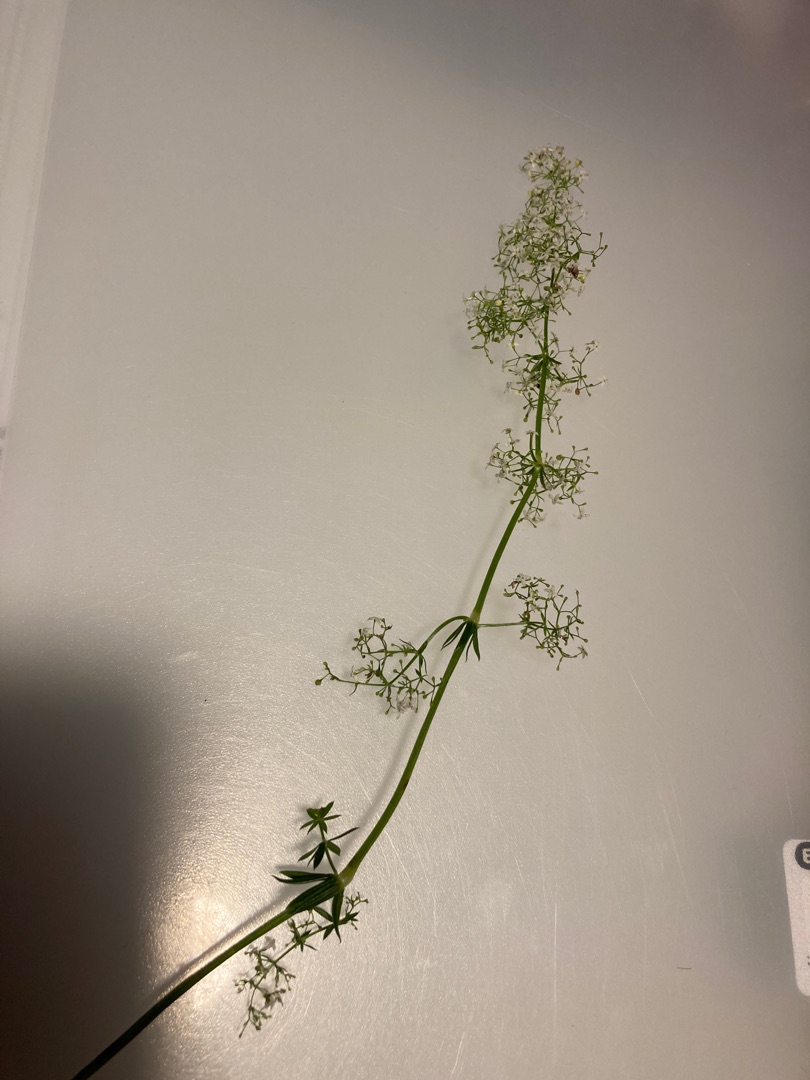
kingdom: Plantae
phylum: Tracheophyta
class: Magnoliopsida
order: Gentianales
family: Rubiaceae
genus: Galium
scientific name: Galium mollugo
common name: Hvid snerre
